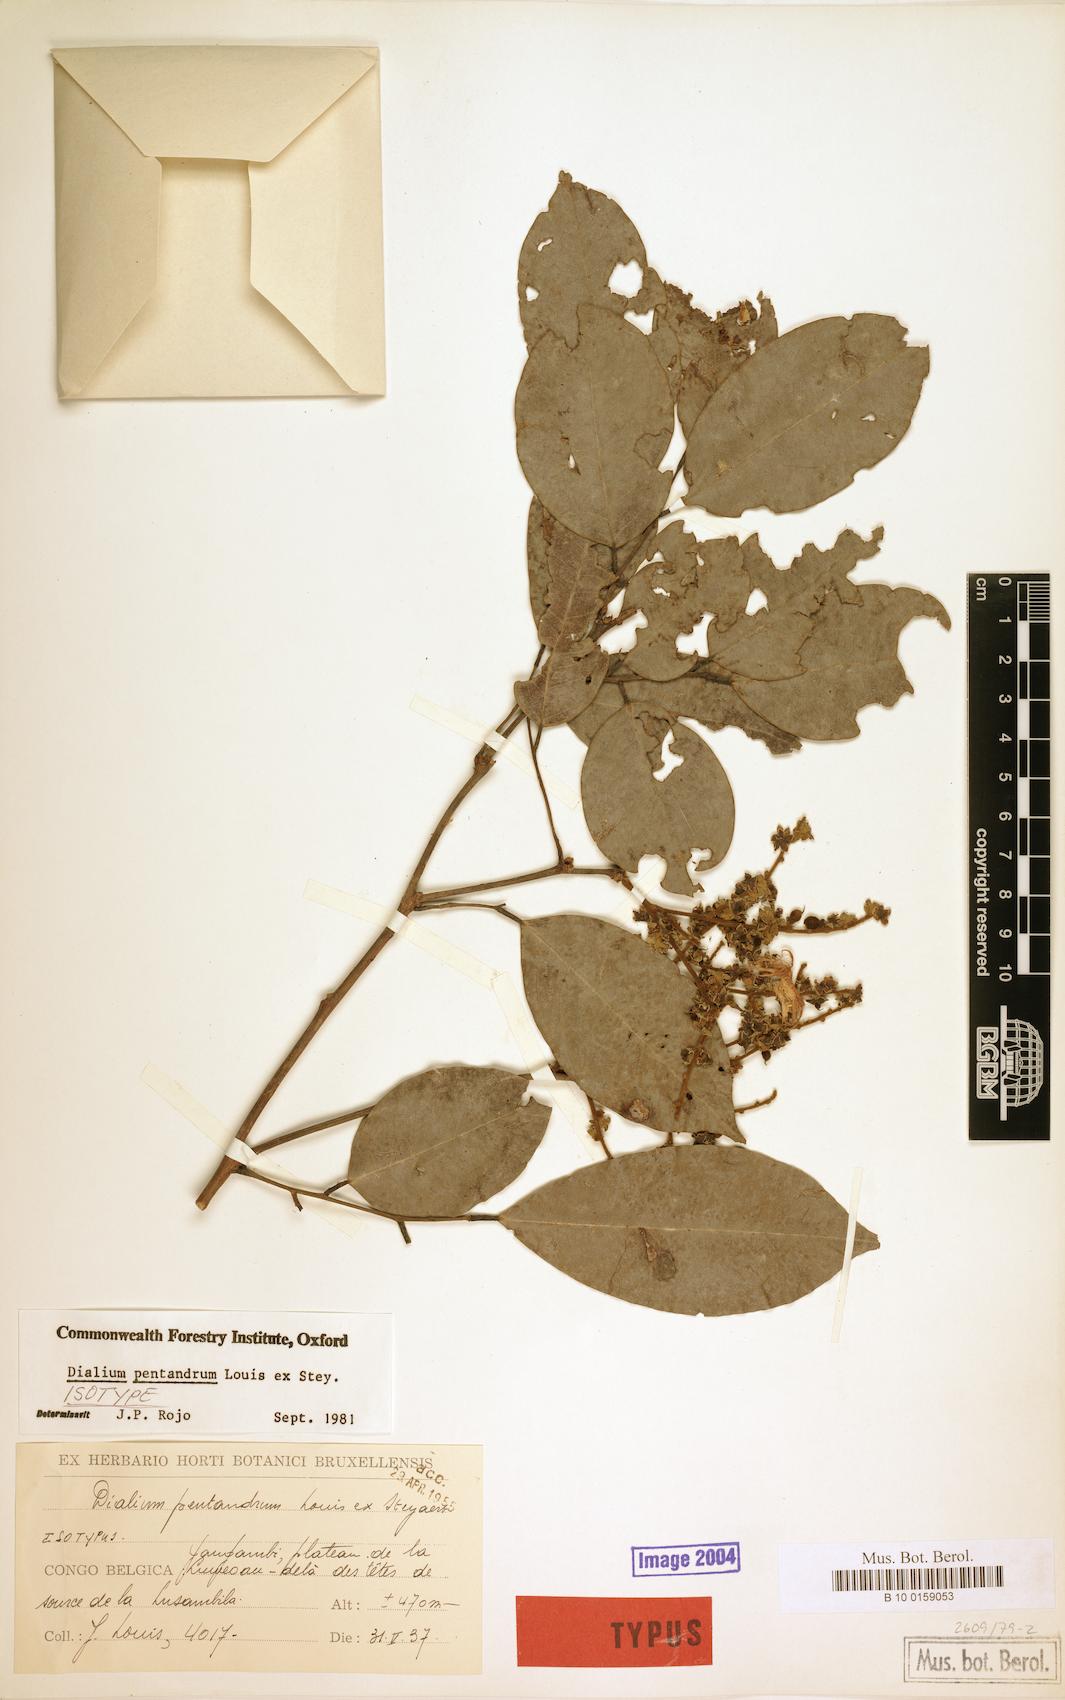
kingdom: Plantae
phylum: Tracheophyta
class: Magnoliopsida
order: Fabales
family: Fabaceae
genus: Dialium
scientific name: Dialium pentandrum
